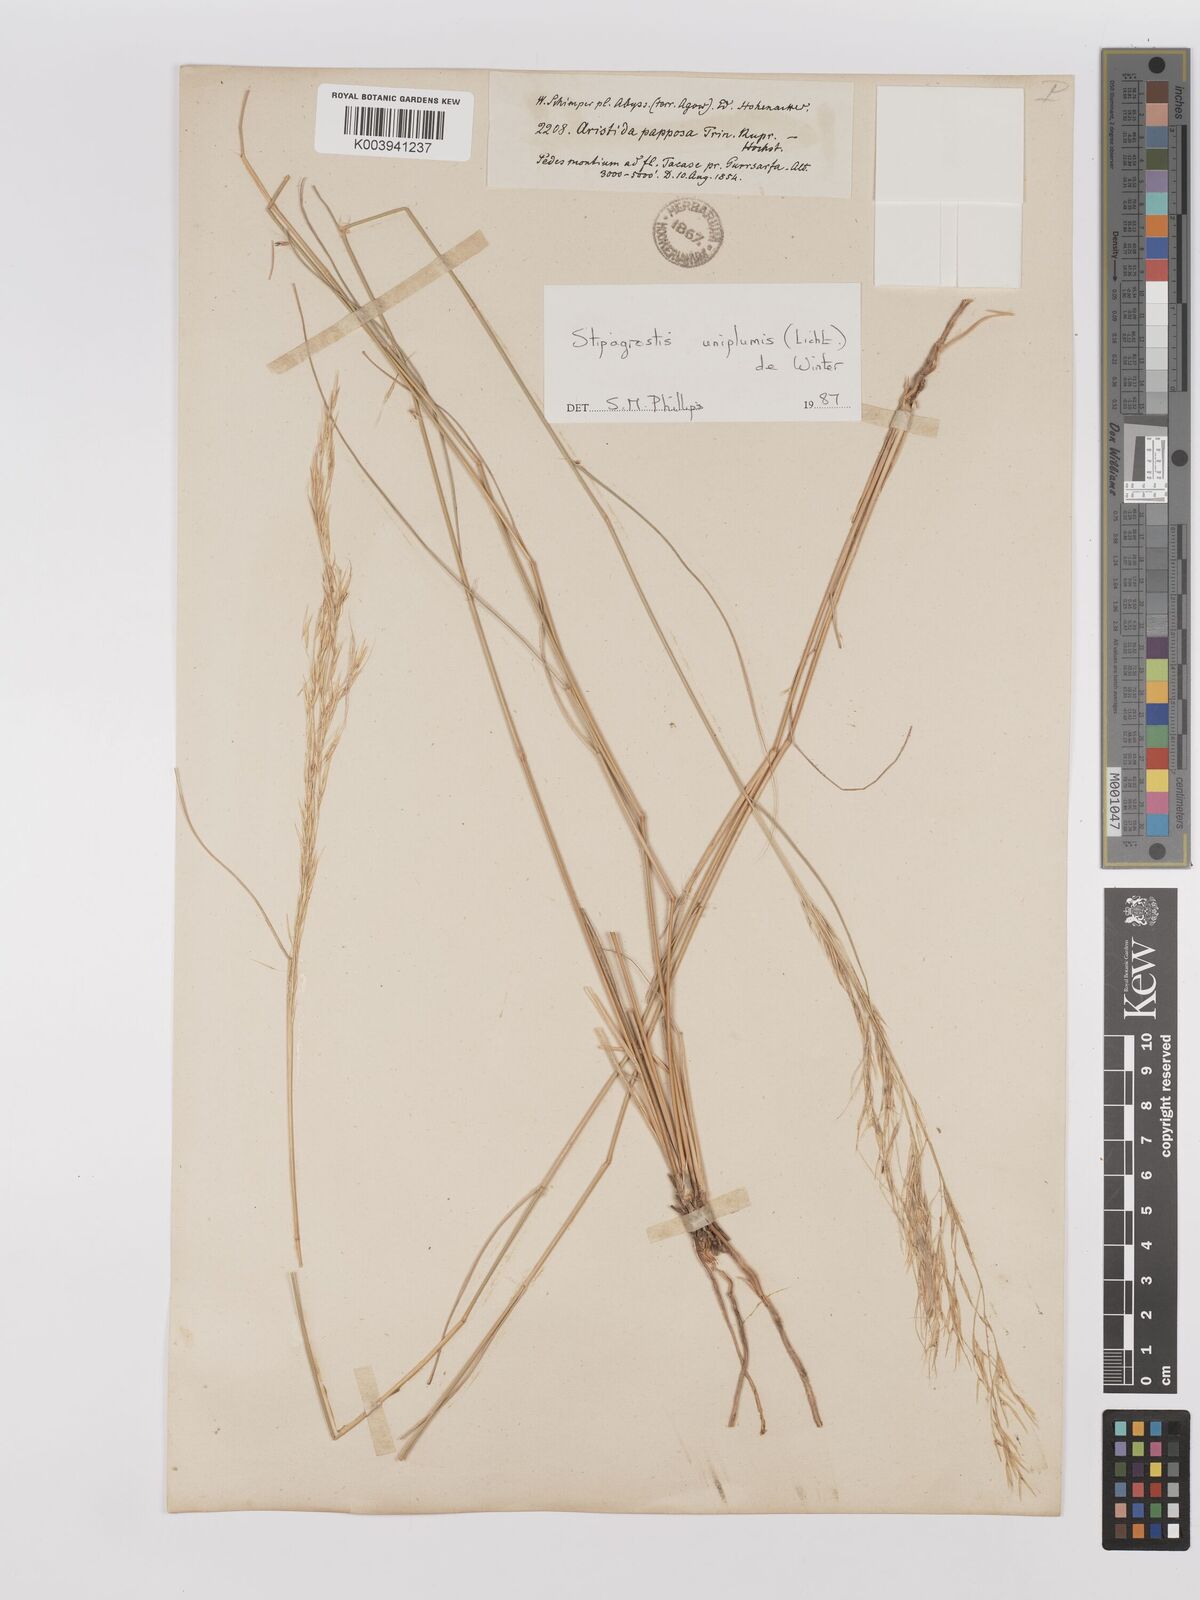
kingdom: Plantae
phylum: Tracheophyta
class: Liliopsida
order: Poales
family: Poaceae
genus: Stipagrostis
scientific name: Stipagrostis uniplumis
